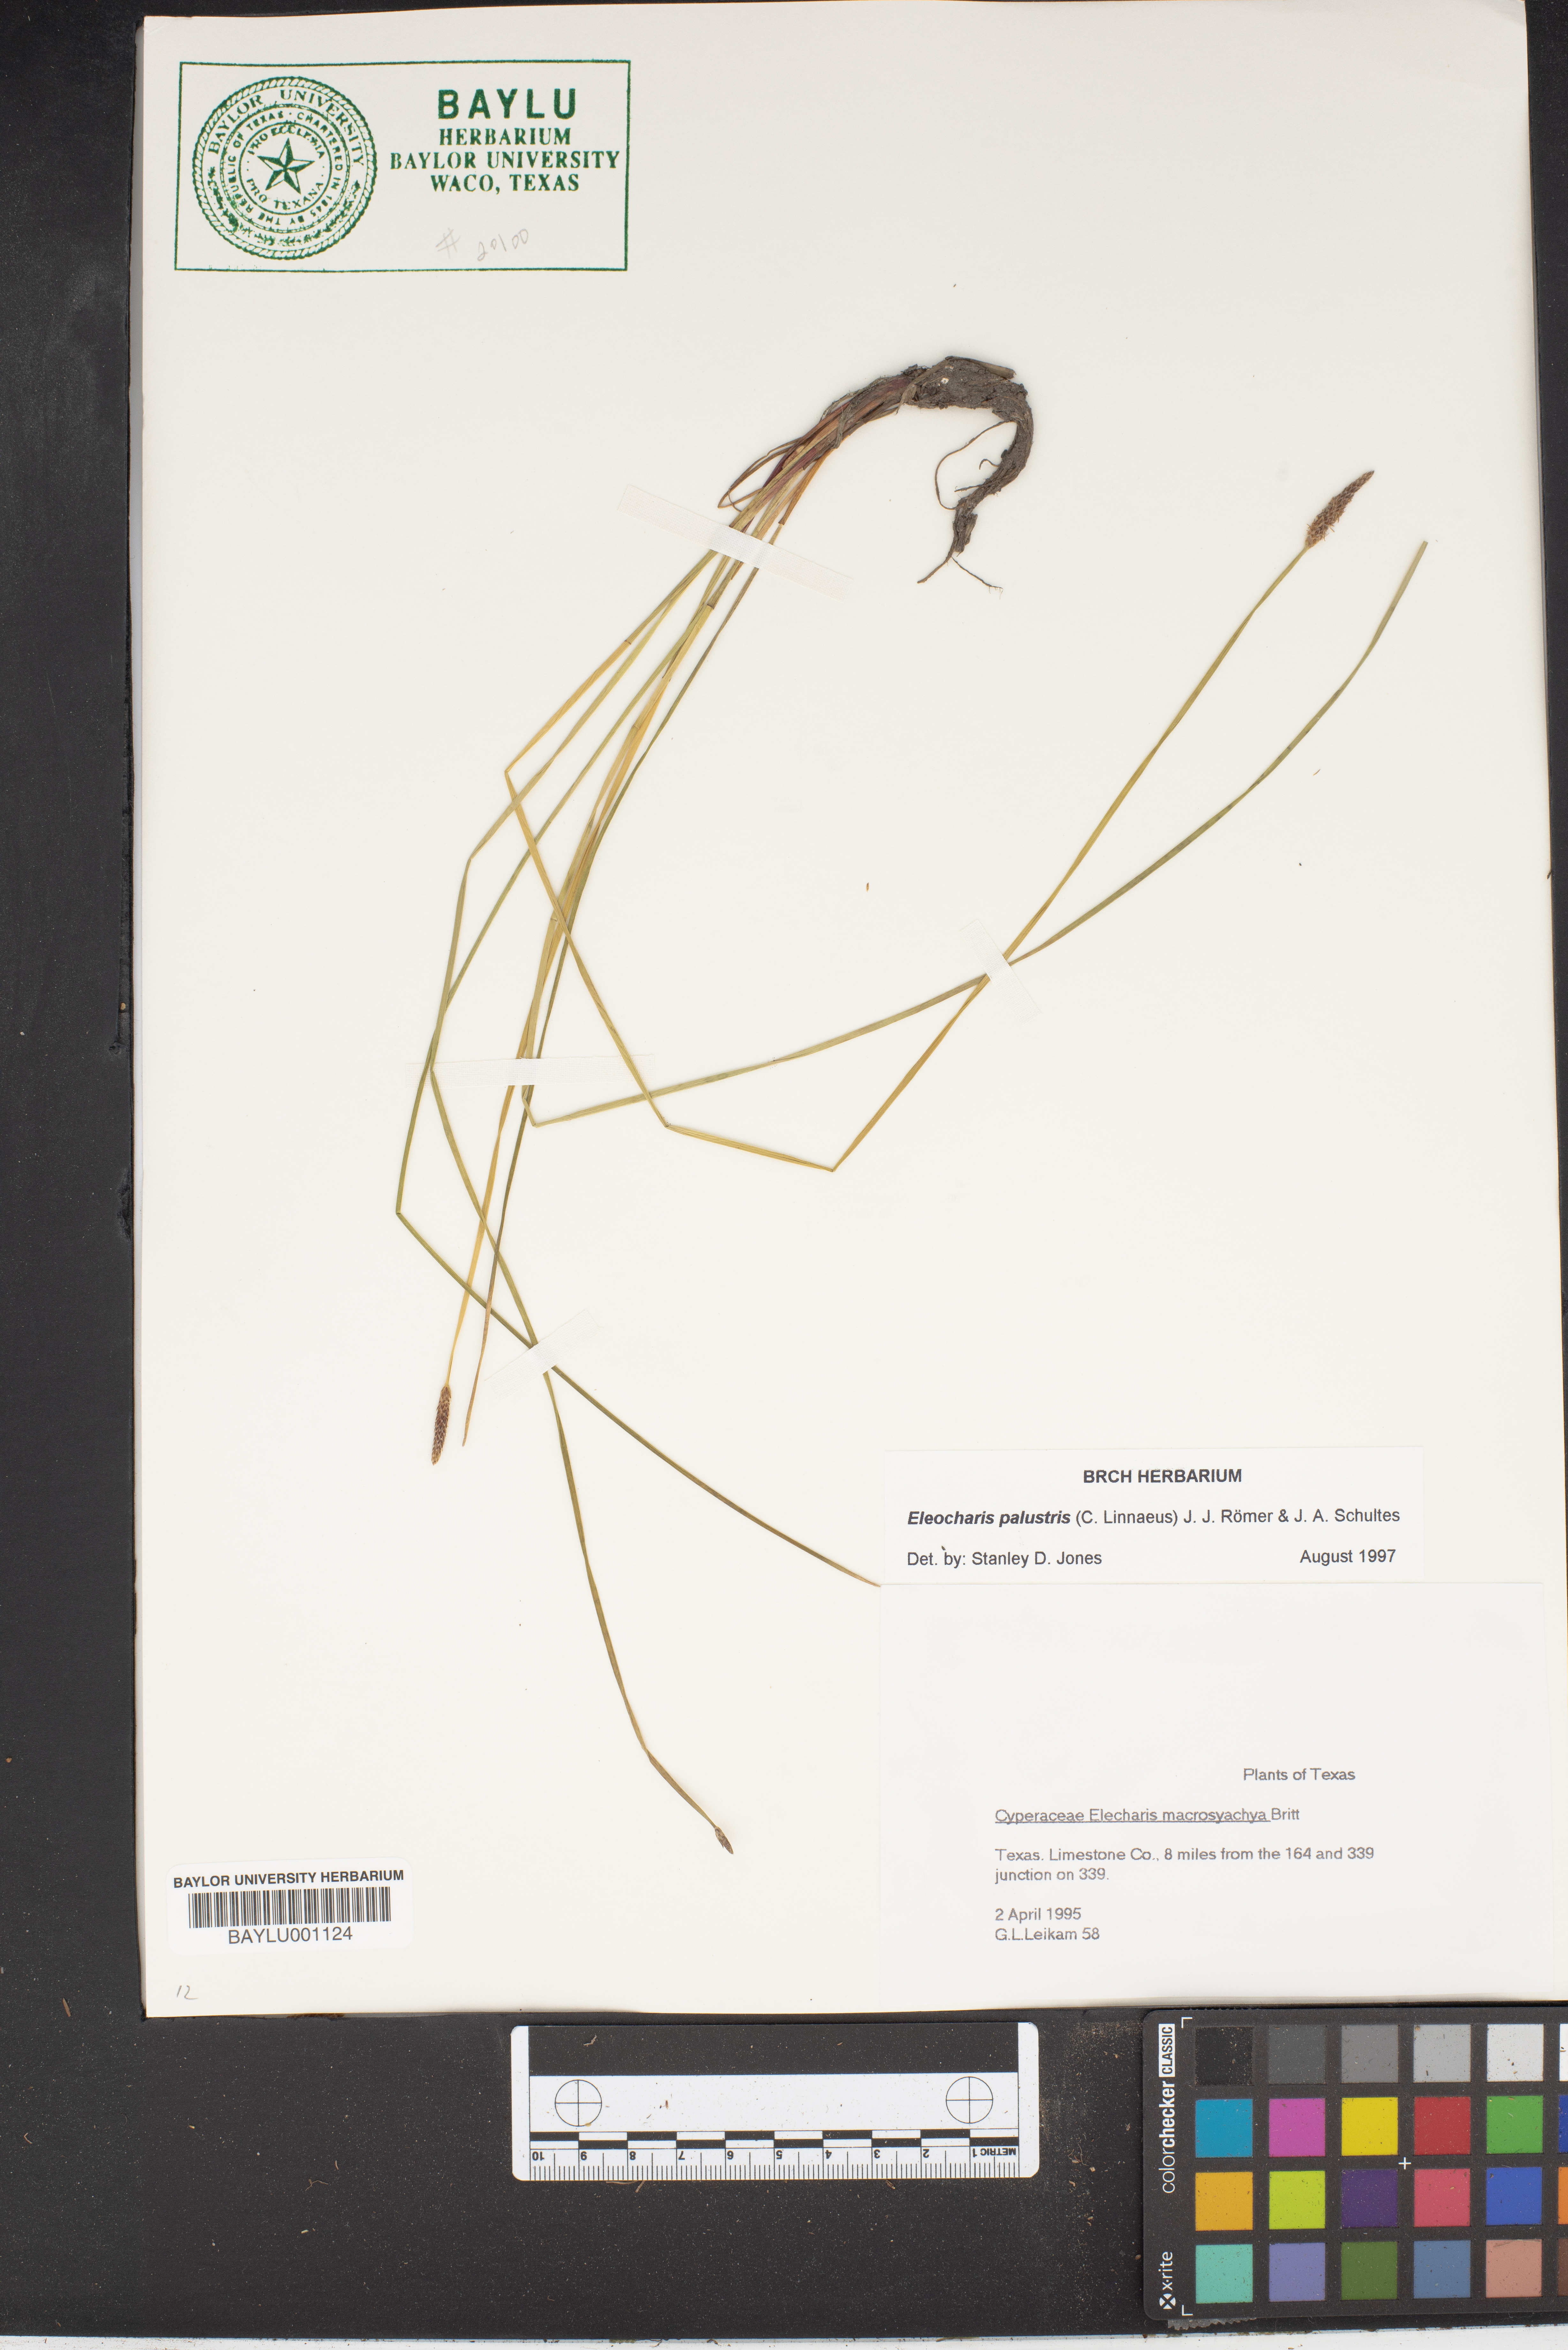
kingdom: Plantae
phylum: Tracheophyta
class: Liliopsida
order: Poales
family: Cyperaceae
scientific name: Cyperaceae
